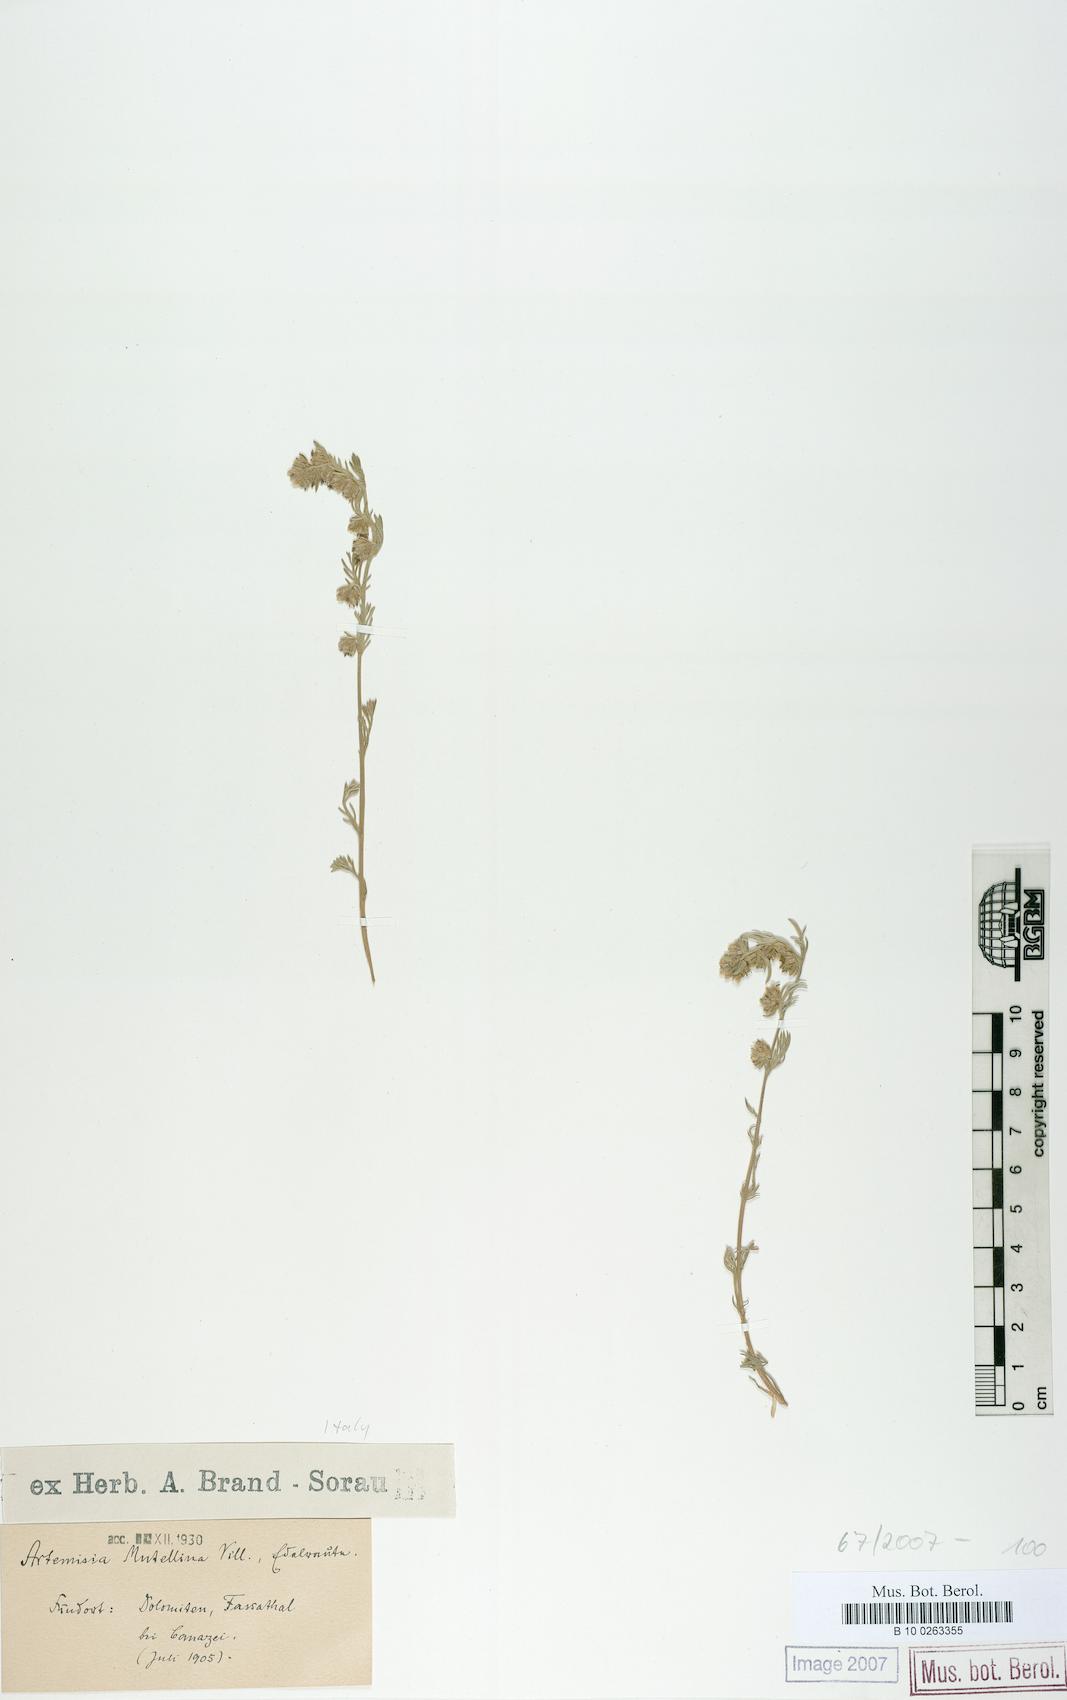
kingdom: Plantae
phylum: Tracheophyta
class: Magnoliopsida
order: Asterales
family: Asteraceae
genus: Artemisia
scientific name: Artemisia mutellina
